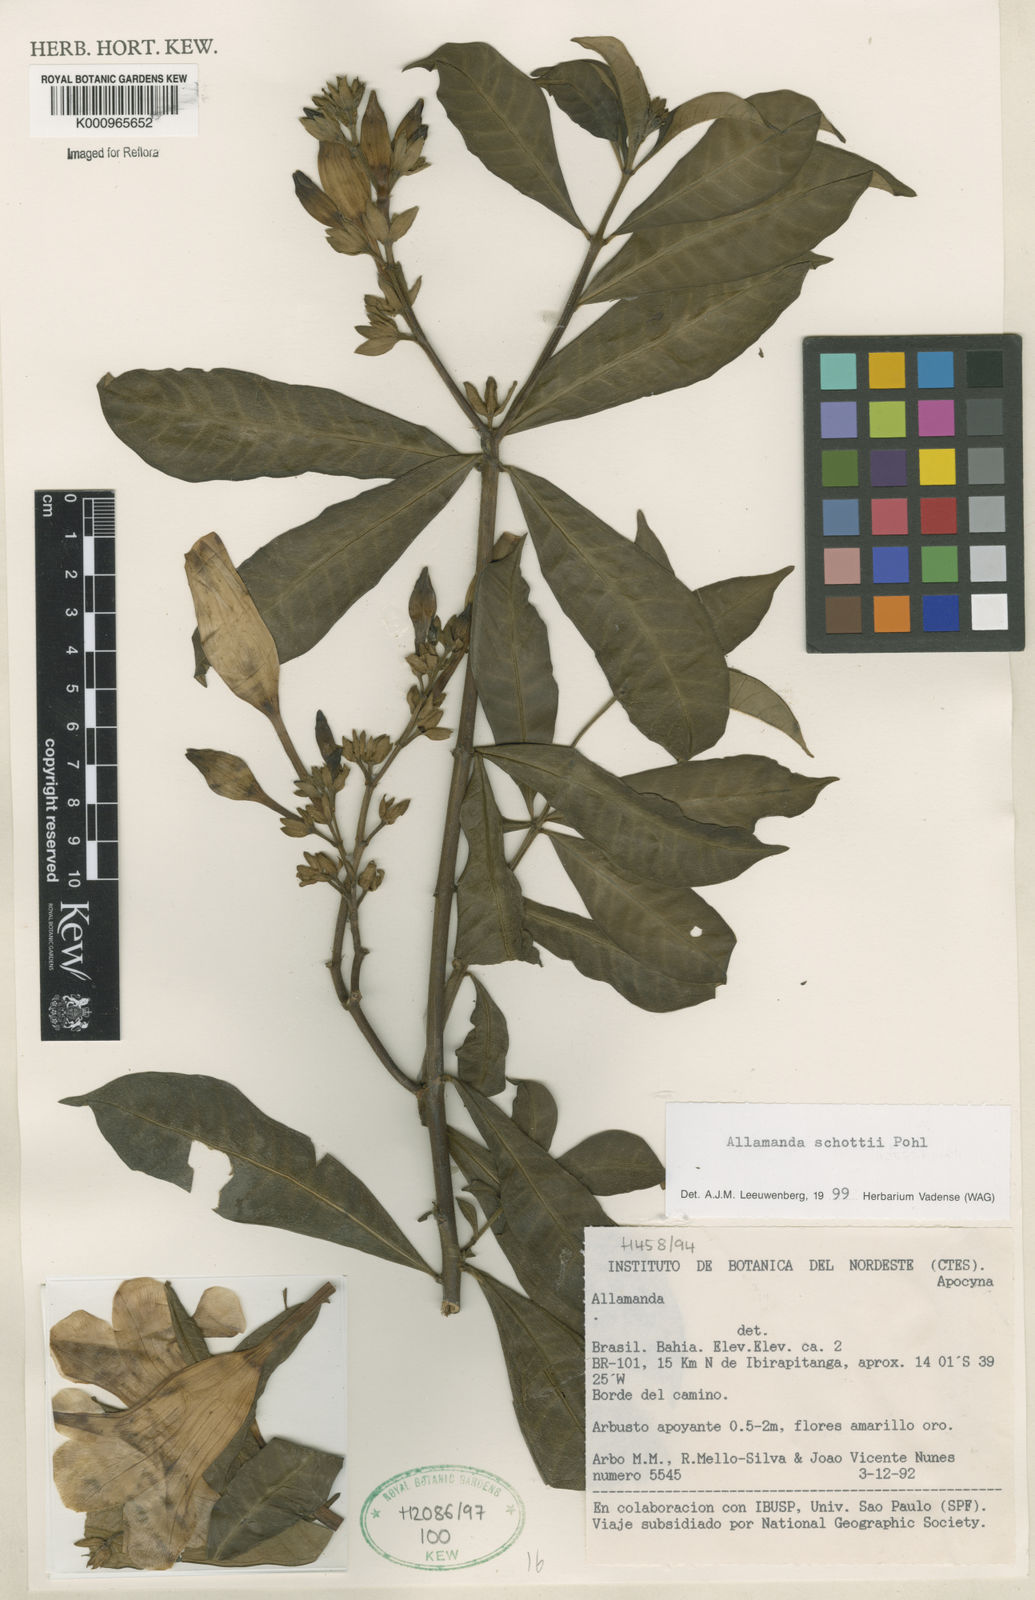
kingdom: Plantae
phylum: Tracheophyta
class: Magnoliopsida
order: Gentianales
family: Apocynaceae
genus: Allamanda
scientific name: Allamanda schottii
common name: Bush allamanda
